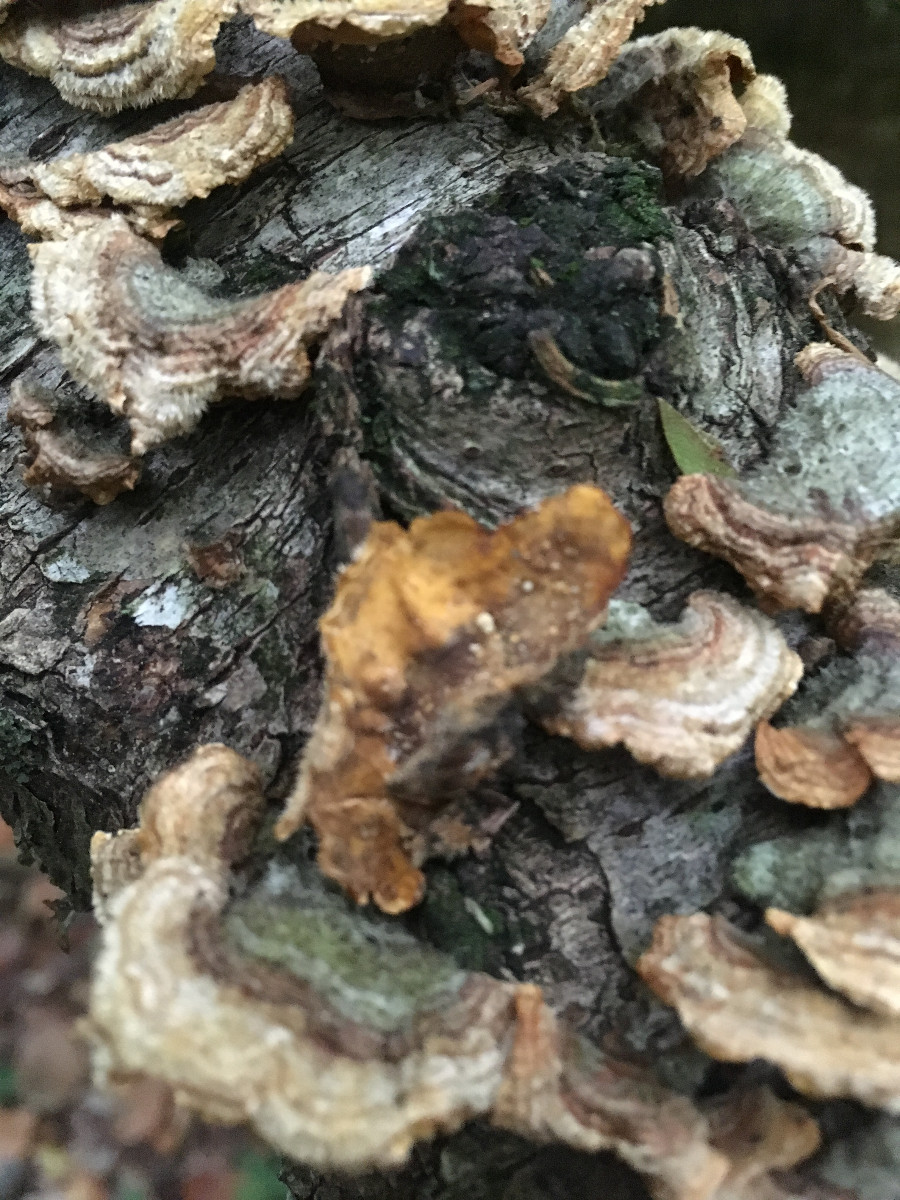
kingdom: Fungi
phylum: Basidiomycota
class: Agaricomycetes
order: Russulales
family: Stereaceae
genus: Stereum
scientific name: Stereum hirsutum
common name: håret lædersvamp
